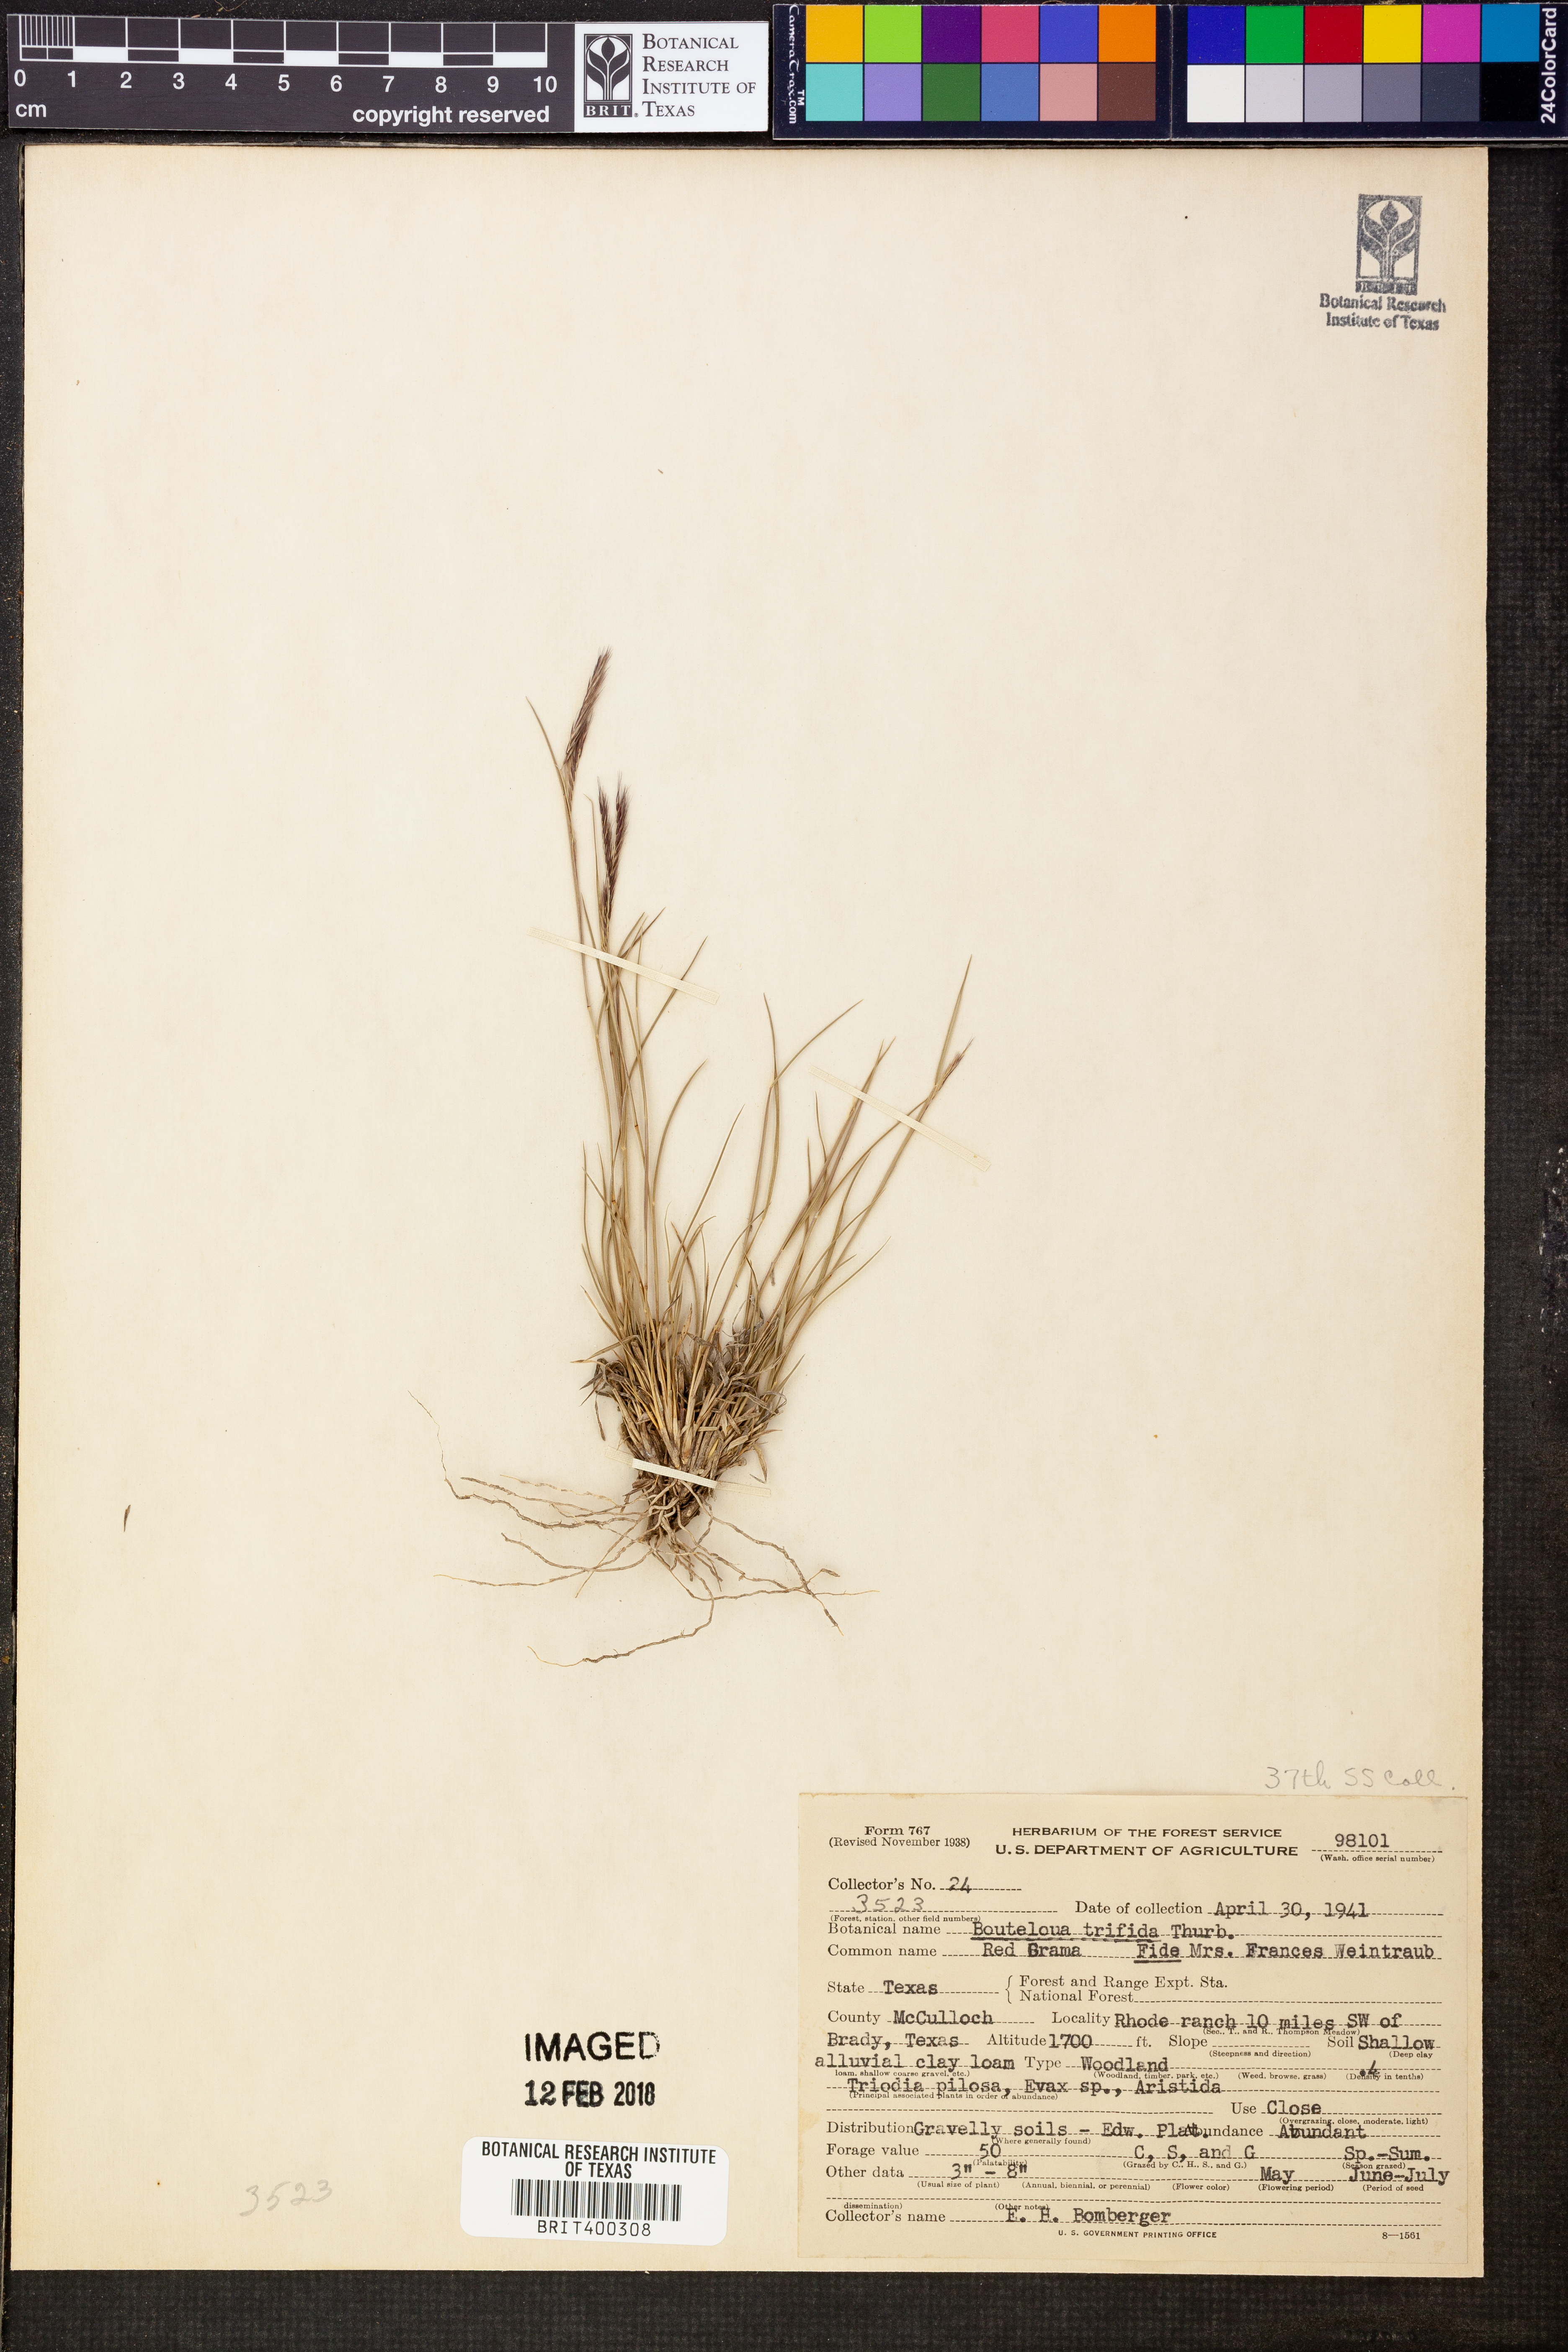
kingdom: Plantae
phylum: Tracheophyta
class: Liliopsida
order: Poales
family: Poaceae
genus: Bouteloua
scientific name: Bouteloua trifida
